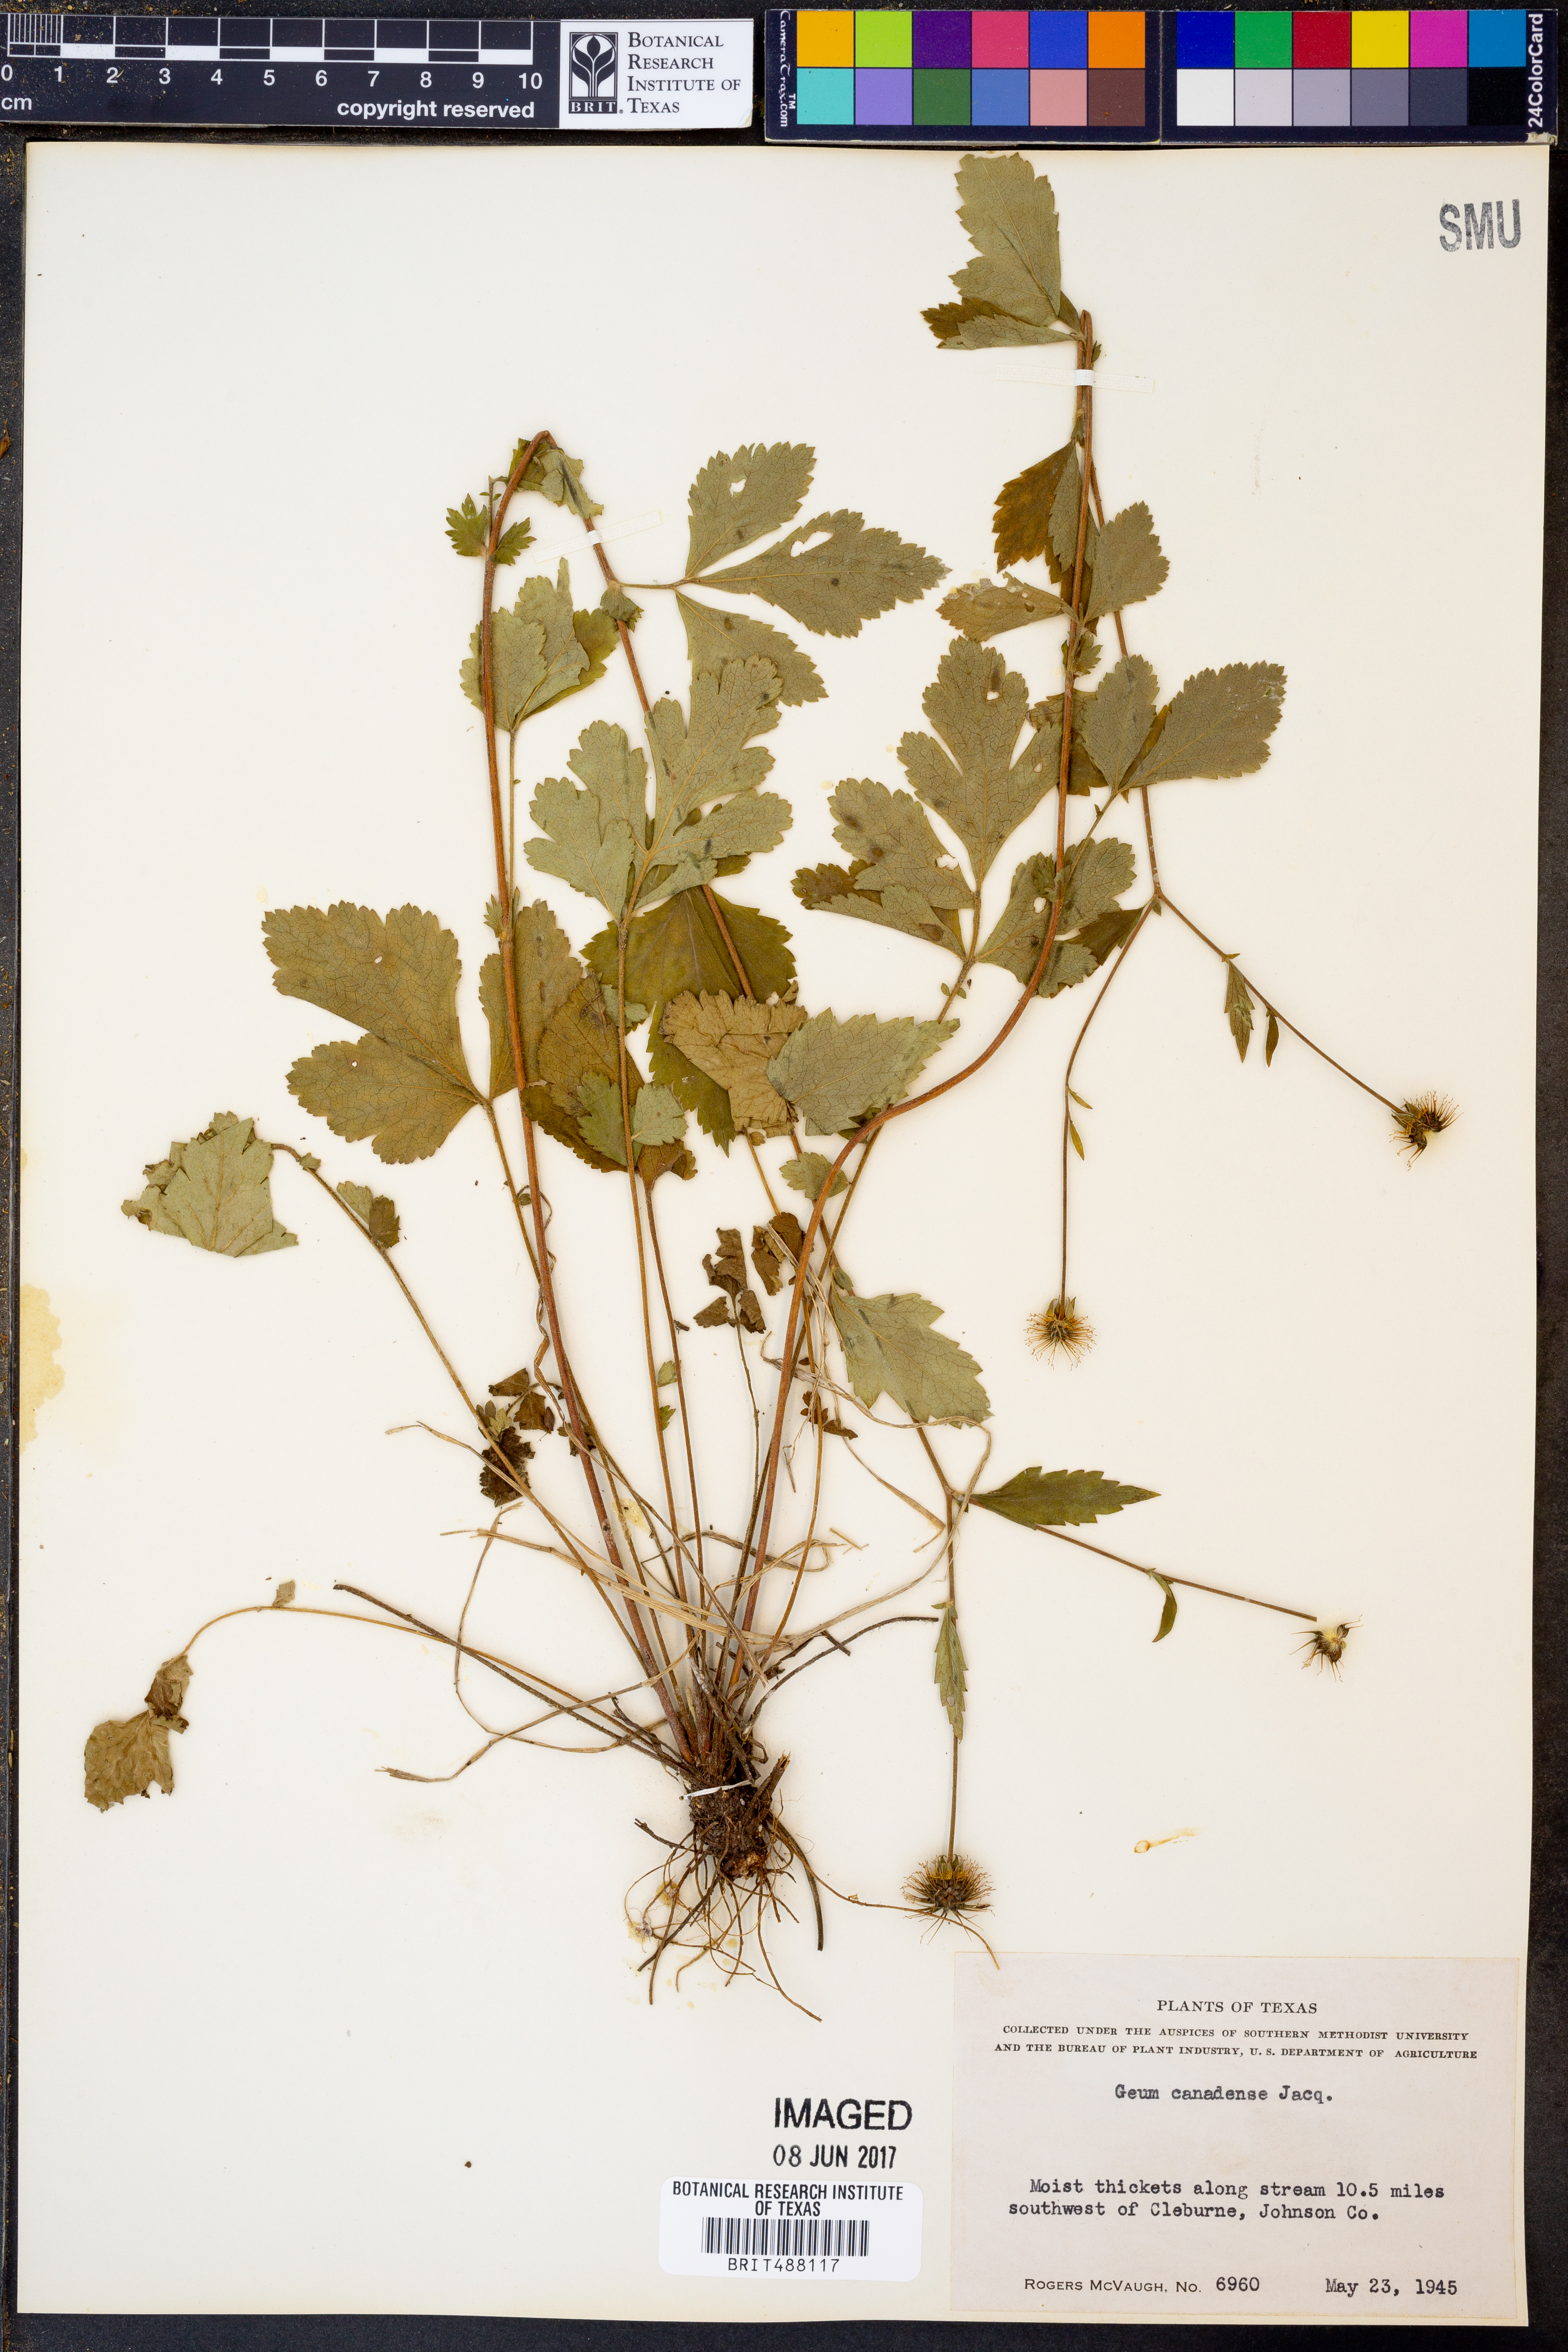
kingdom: Plantae
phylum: Tracheophyta
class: Magnoliopsida
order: Rosales
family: Rosaceae
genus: Geum
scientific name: Geum canadense
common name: White avens
